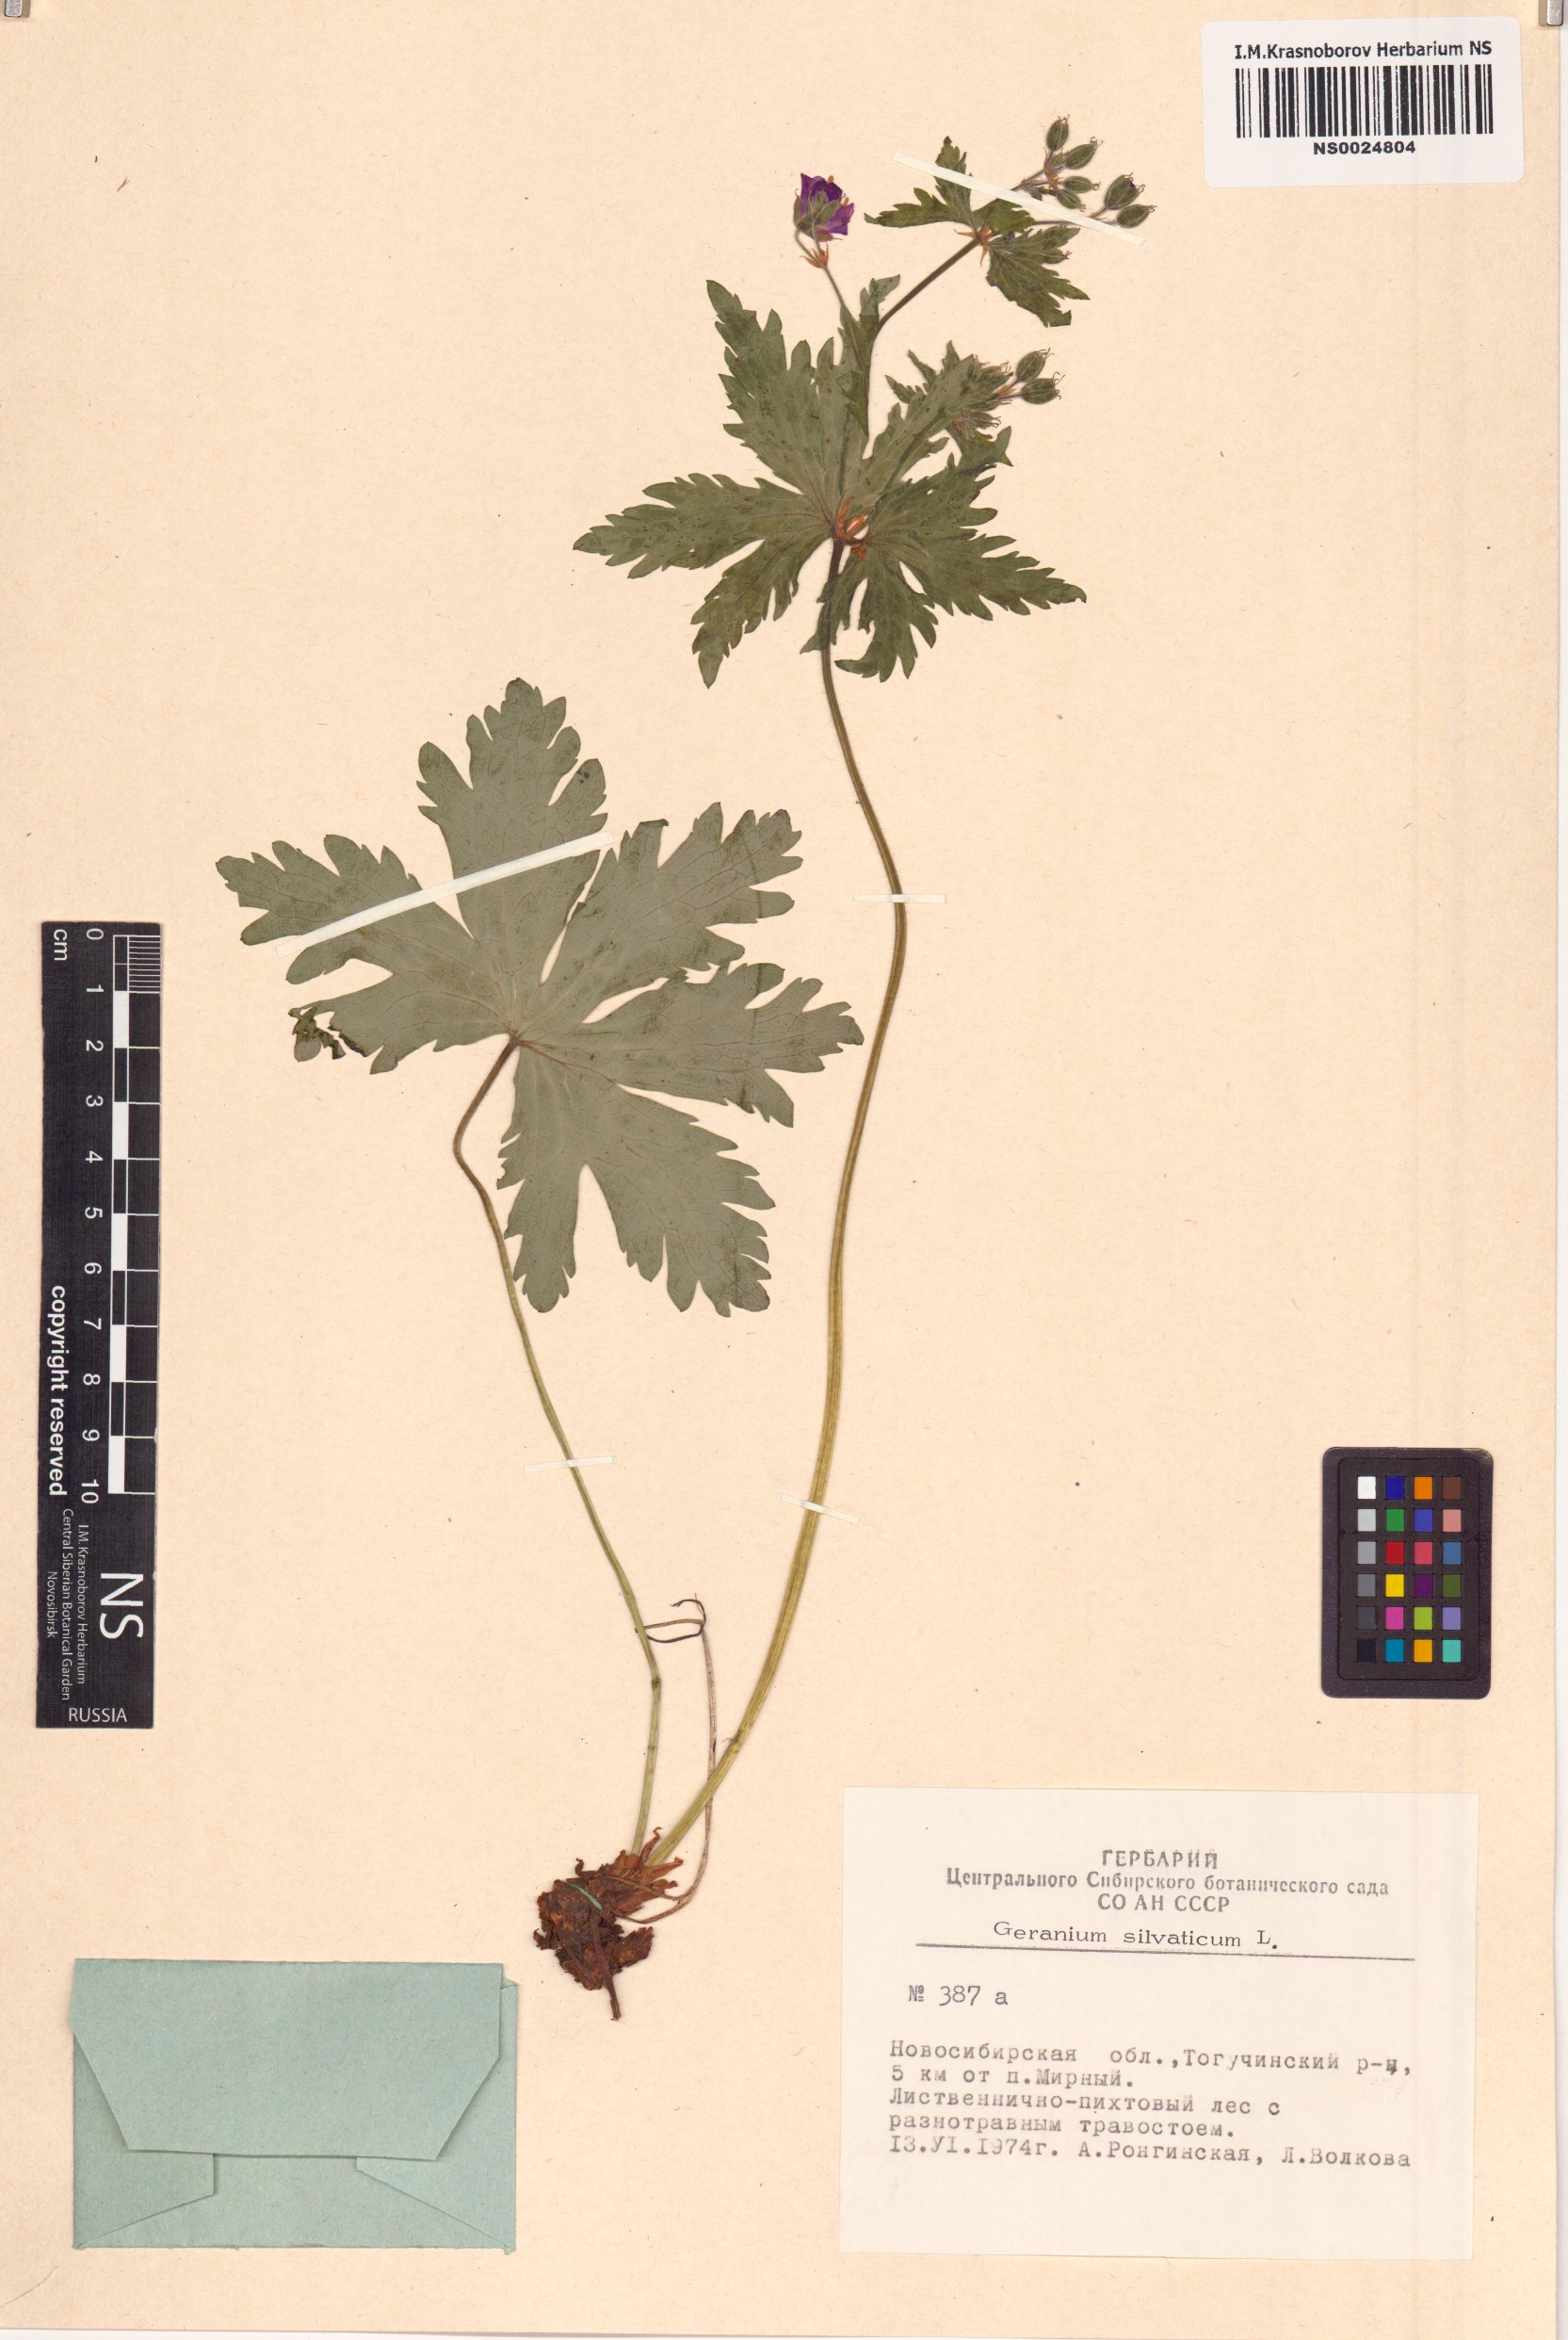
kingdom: Plantae
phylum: Tracheophyta
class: Magnoliopsida
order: Geraniales
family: Geraniaceae
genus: Geranium
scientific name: Geranium sylvaticum
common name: Wood crane's-bill
